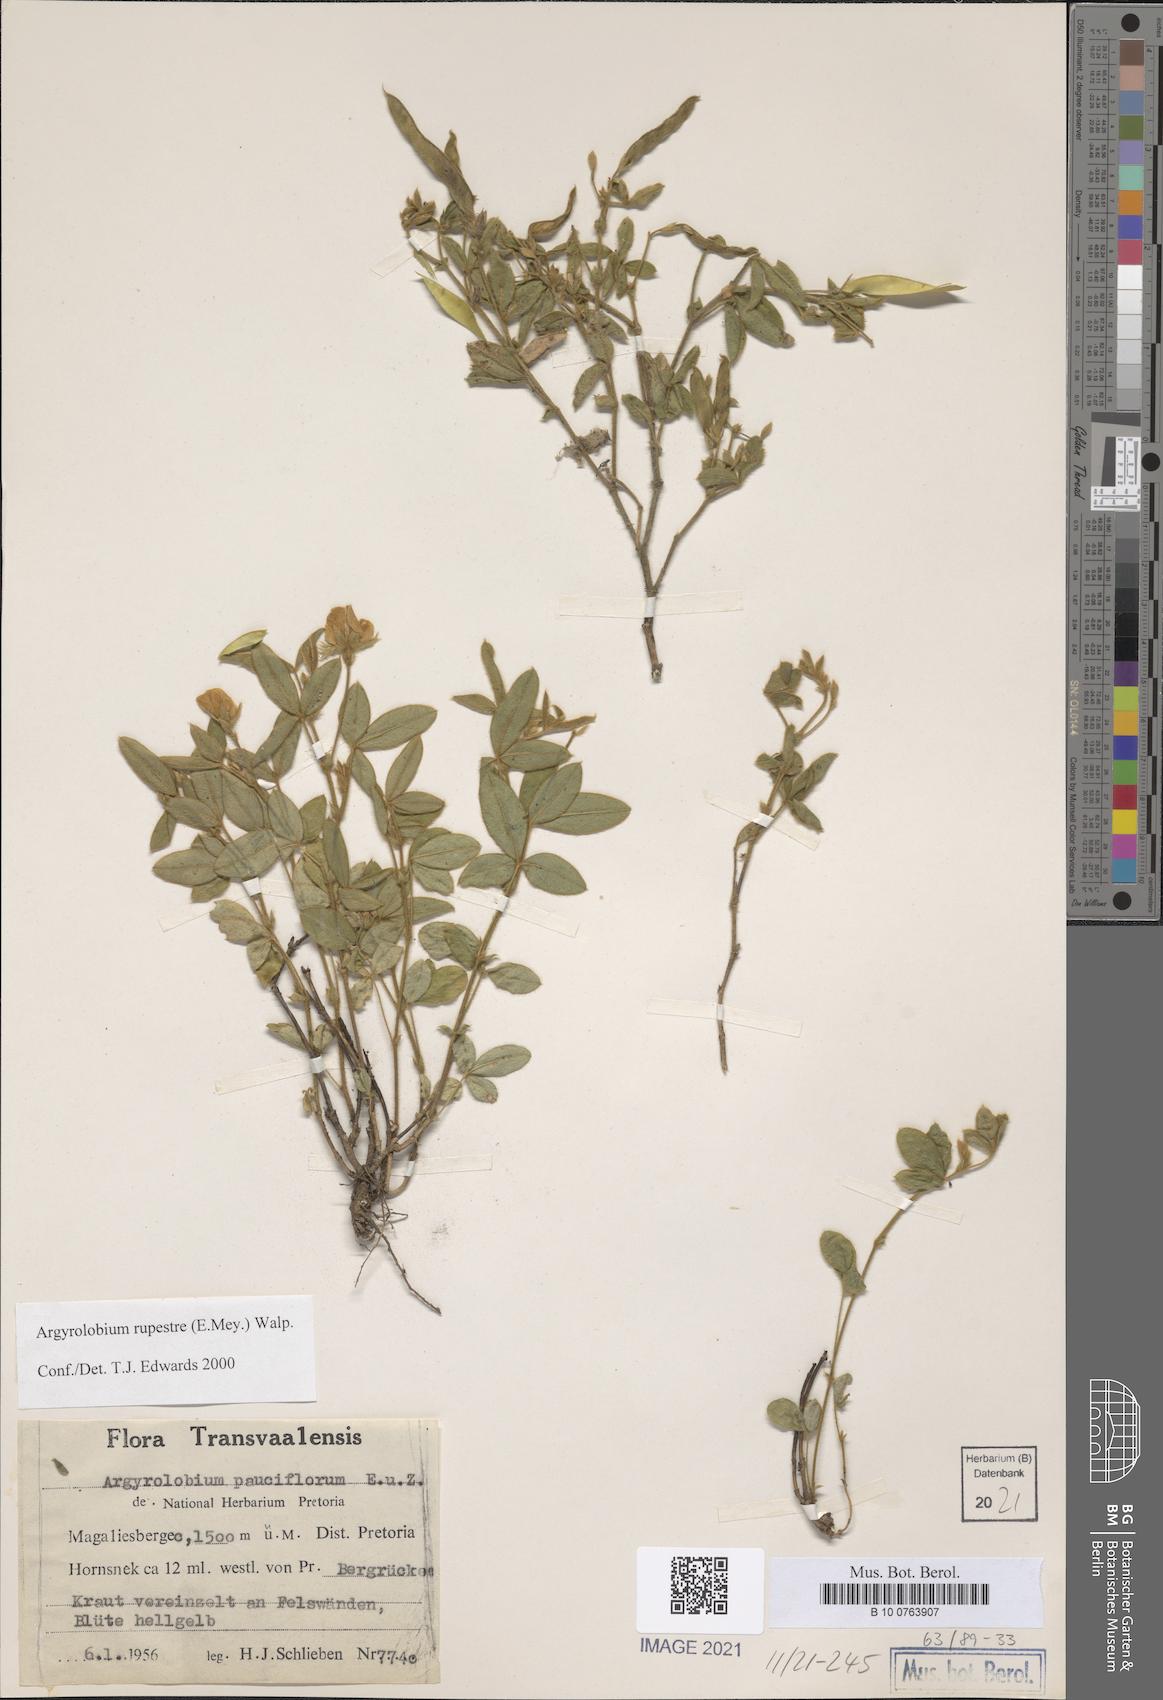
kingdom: Plantae
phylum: Tracheophyta
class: Magnoliopsida
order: Fabales
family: Fabaceae
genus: Argyrolobium
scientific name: Argyrolobium rupestre
